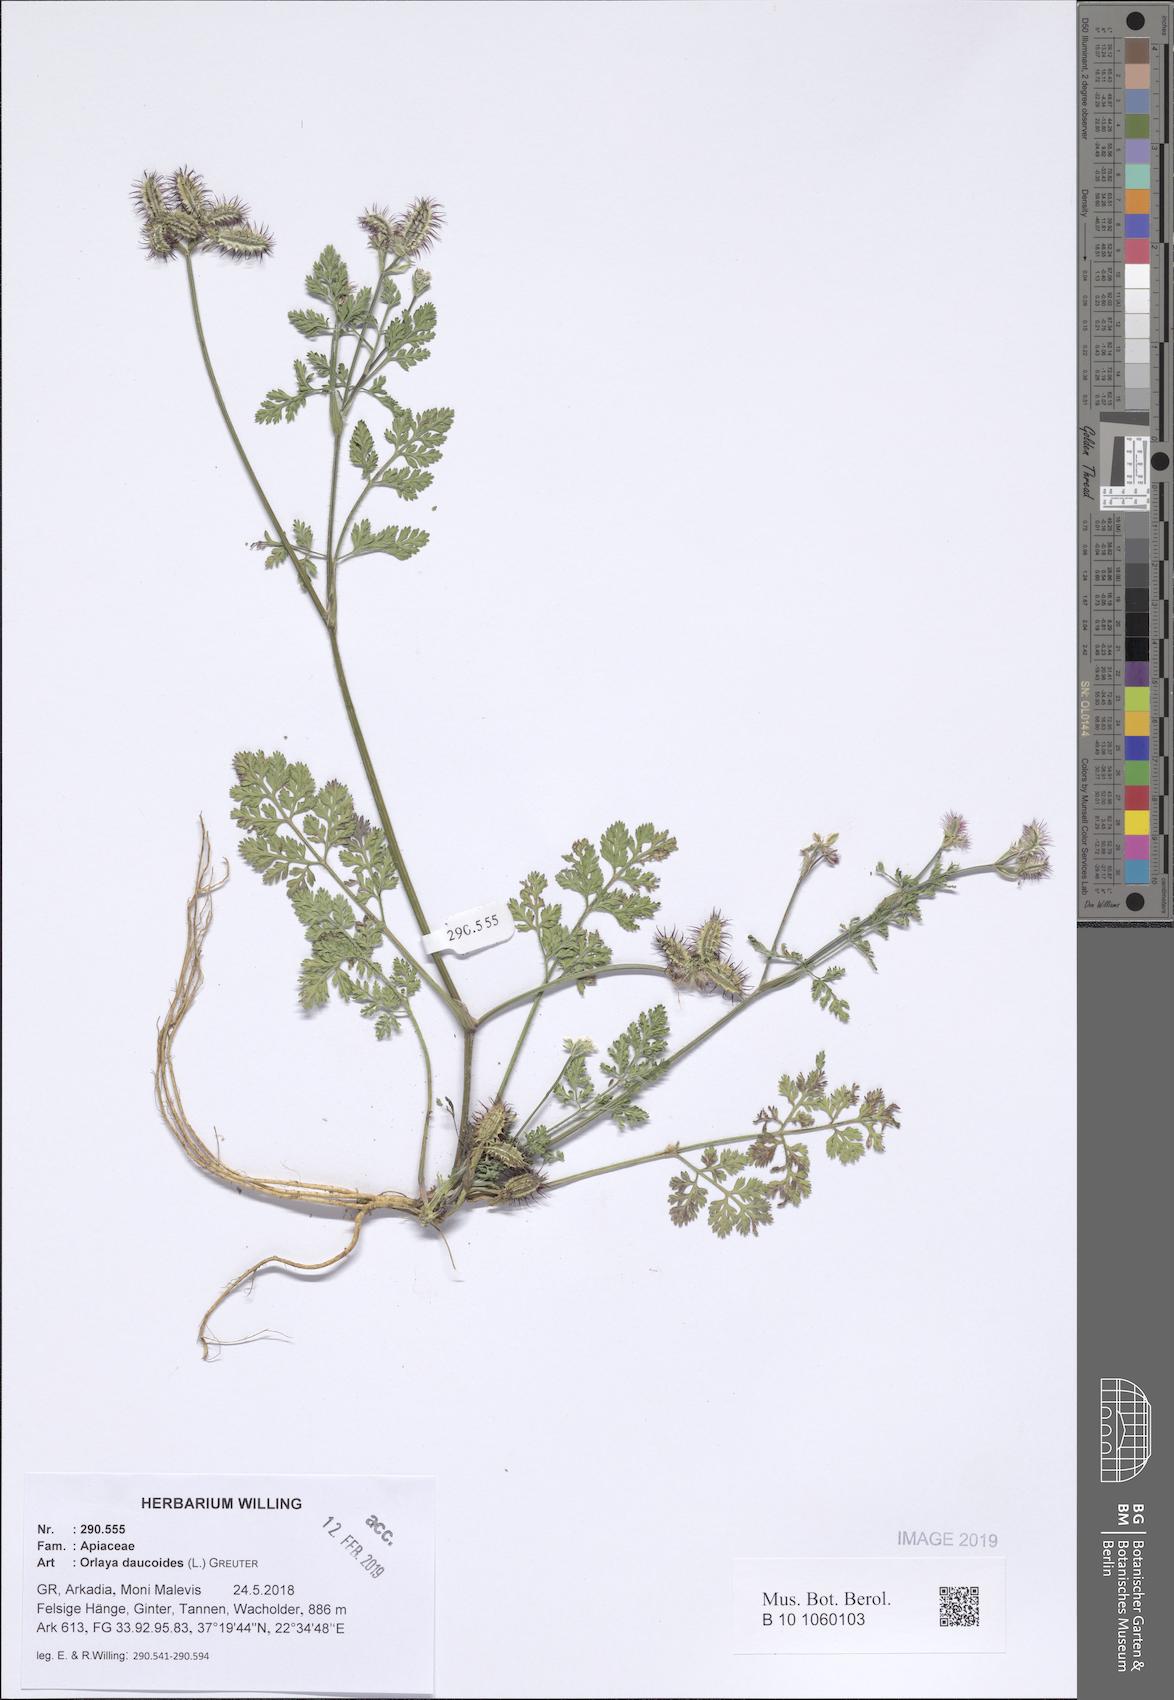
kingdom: Plantae
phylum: Tracheophyta
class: Magnoliopsida
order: Apiales
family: Apiaceae
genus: Orlaya
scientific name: Orlaya daucoides
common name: Flat-fruit orlaya
